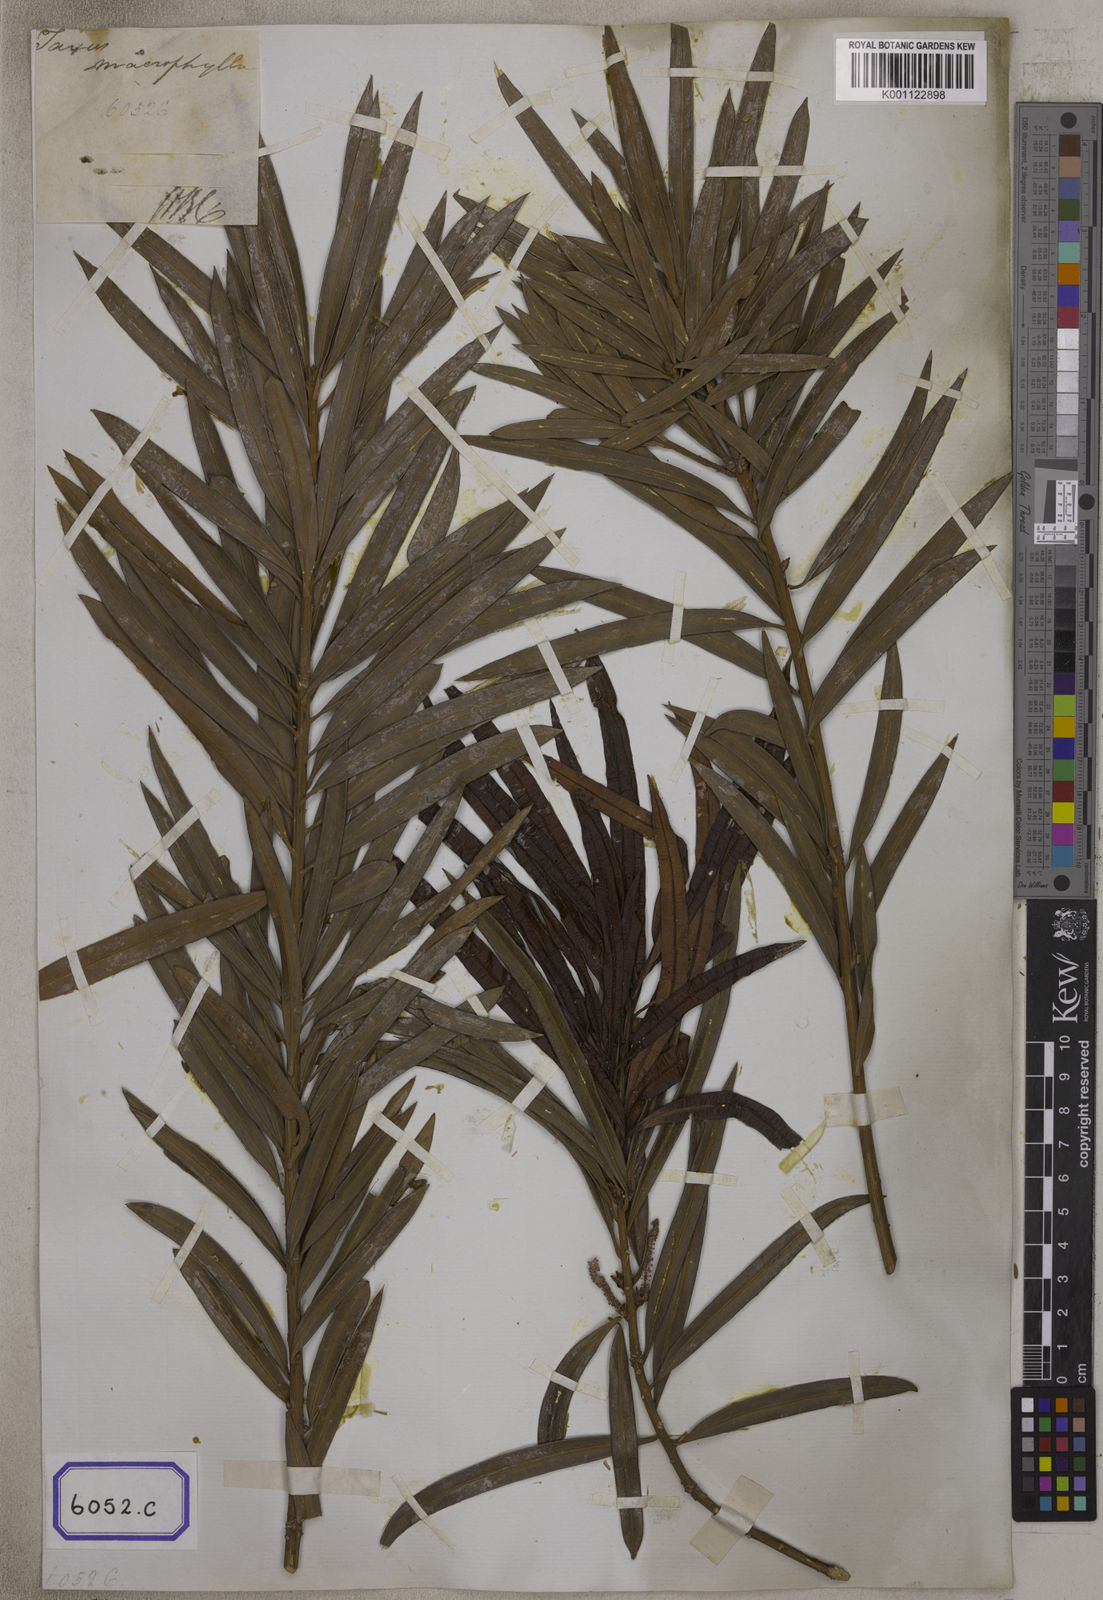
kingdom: Plantae
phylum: Tracheophyta
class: Pinopsida
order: Pinales
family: Podocarpaceae
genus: Podocarpus
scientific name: Podocarpus
